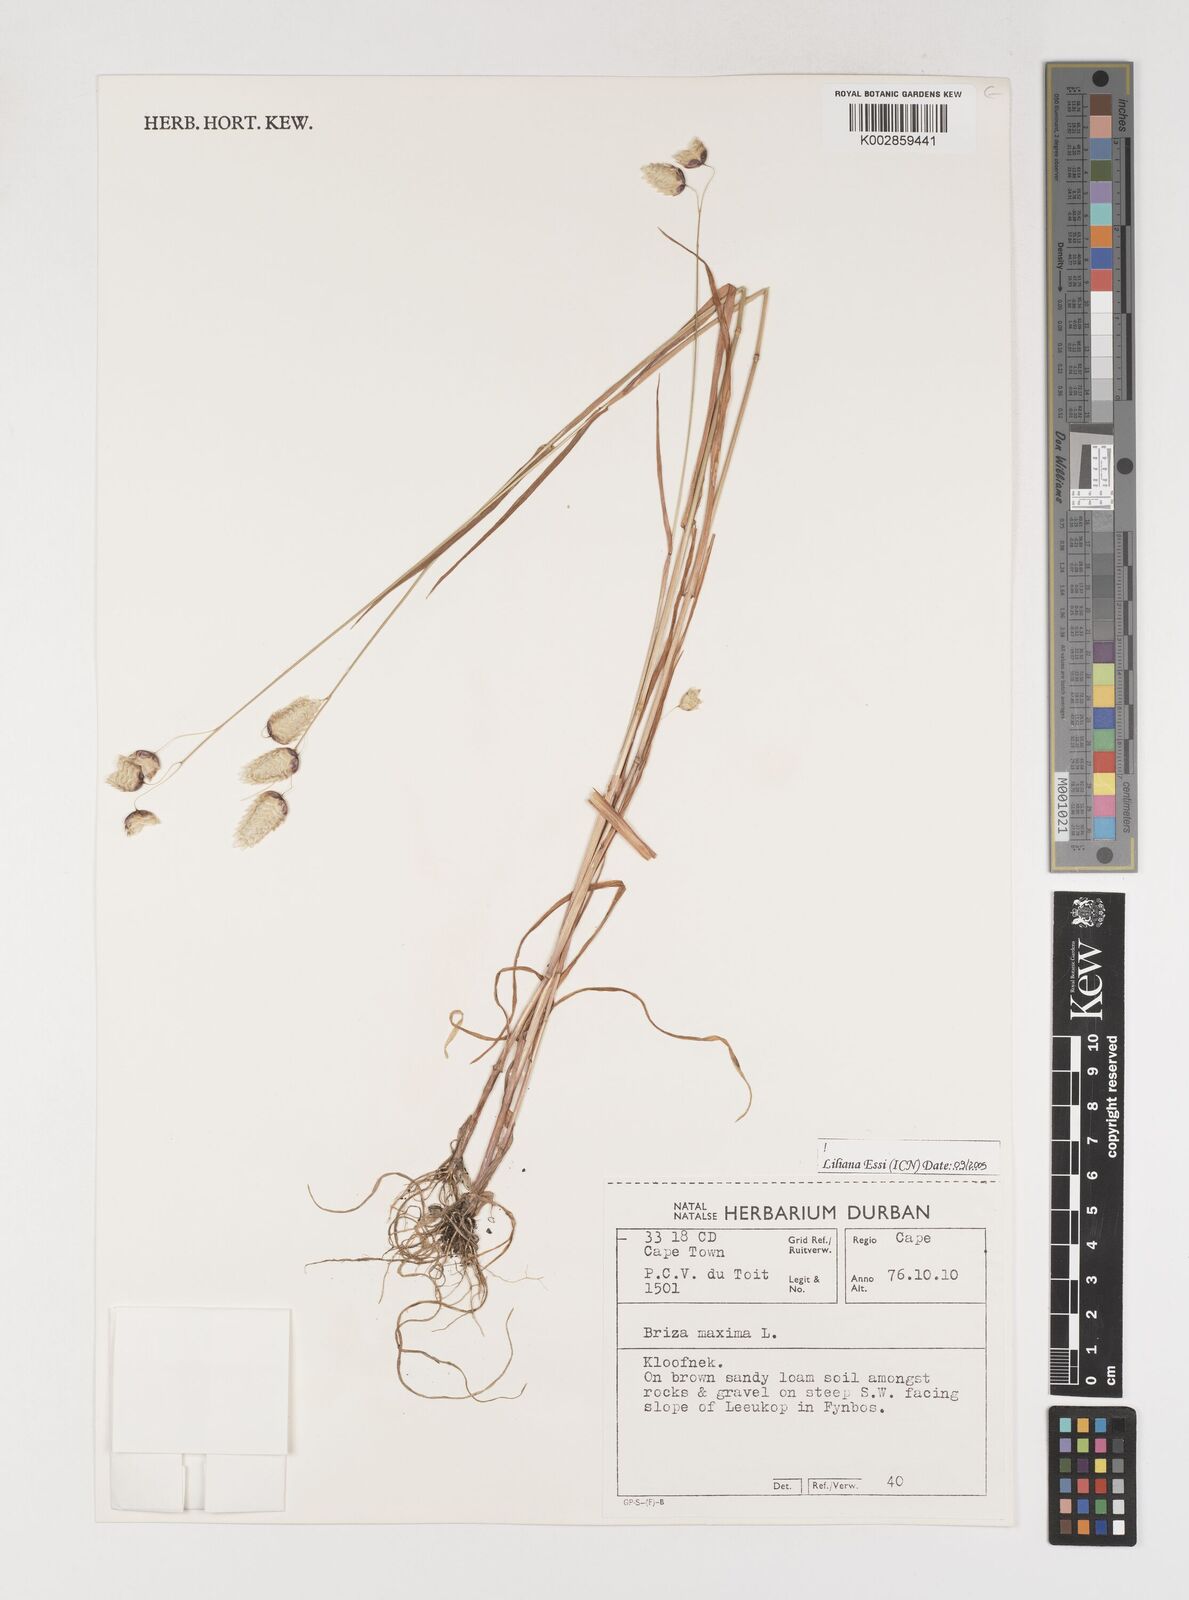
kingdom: Plantae
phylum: Tracheophyta
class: Liliopsida
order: Poales
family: Poaceae
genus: Briza
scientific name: Briza maxima
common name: Big quakinggrass
